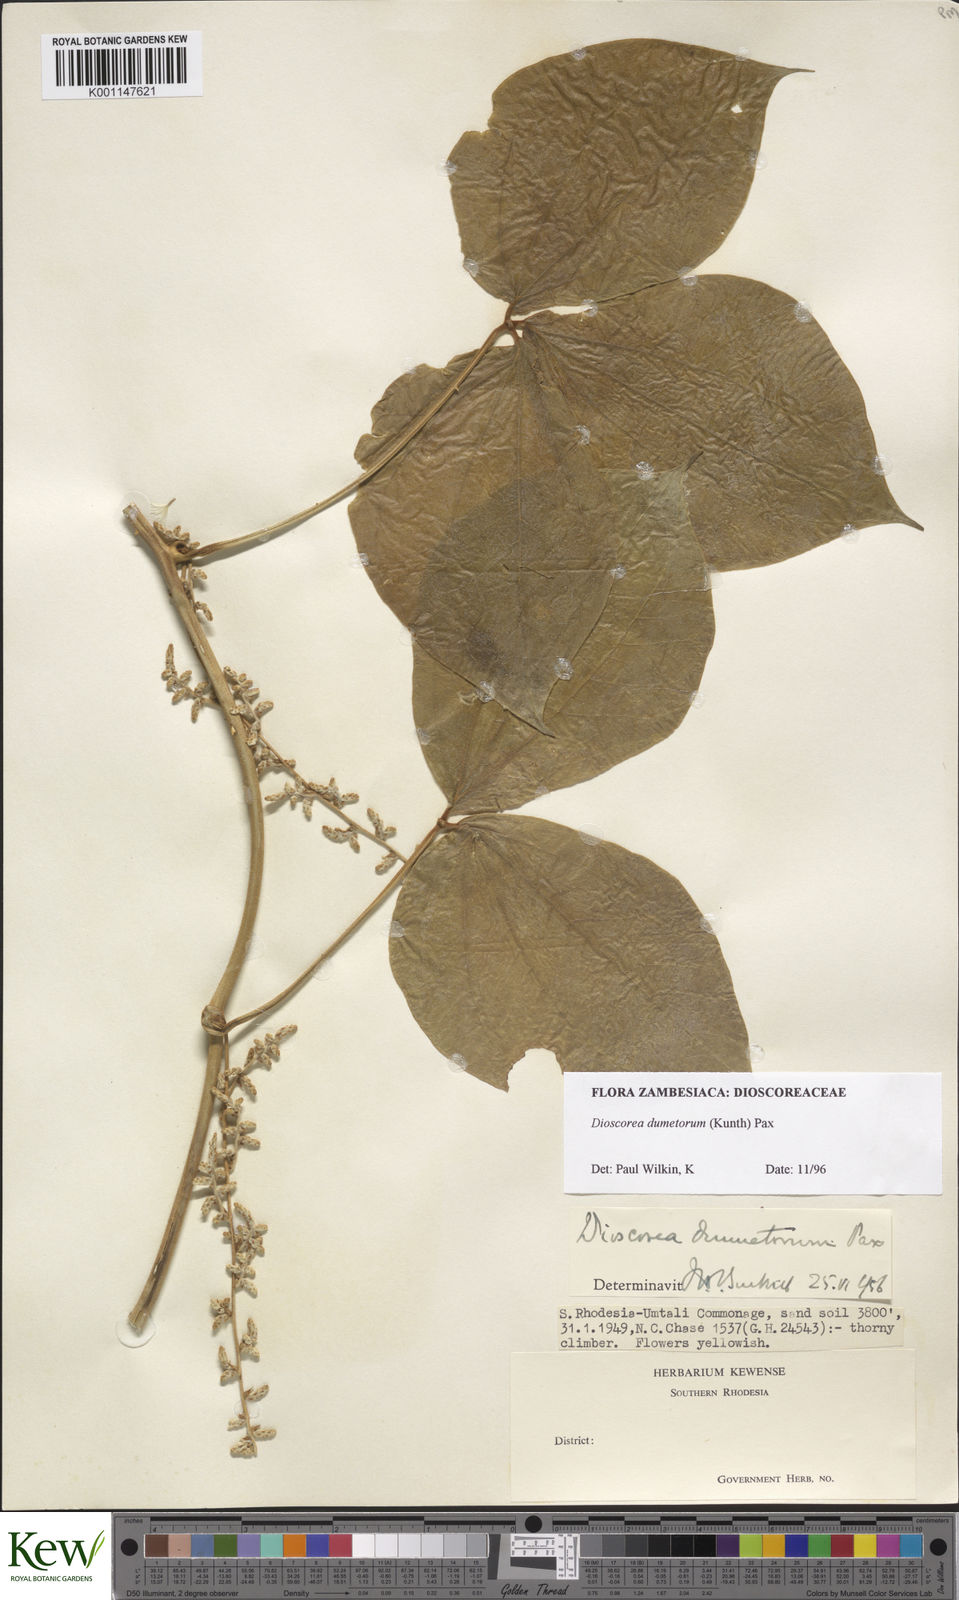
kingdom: Plantae
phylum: Tracheophyta
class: Liliopsida
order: Dioscoreales
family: Dioscoreaceae
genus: Dioscorea
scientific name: Dioscorea dumetorum
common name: African bitter yam
